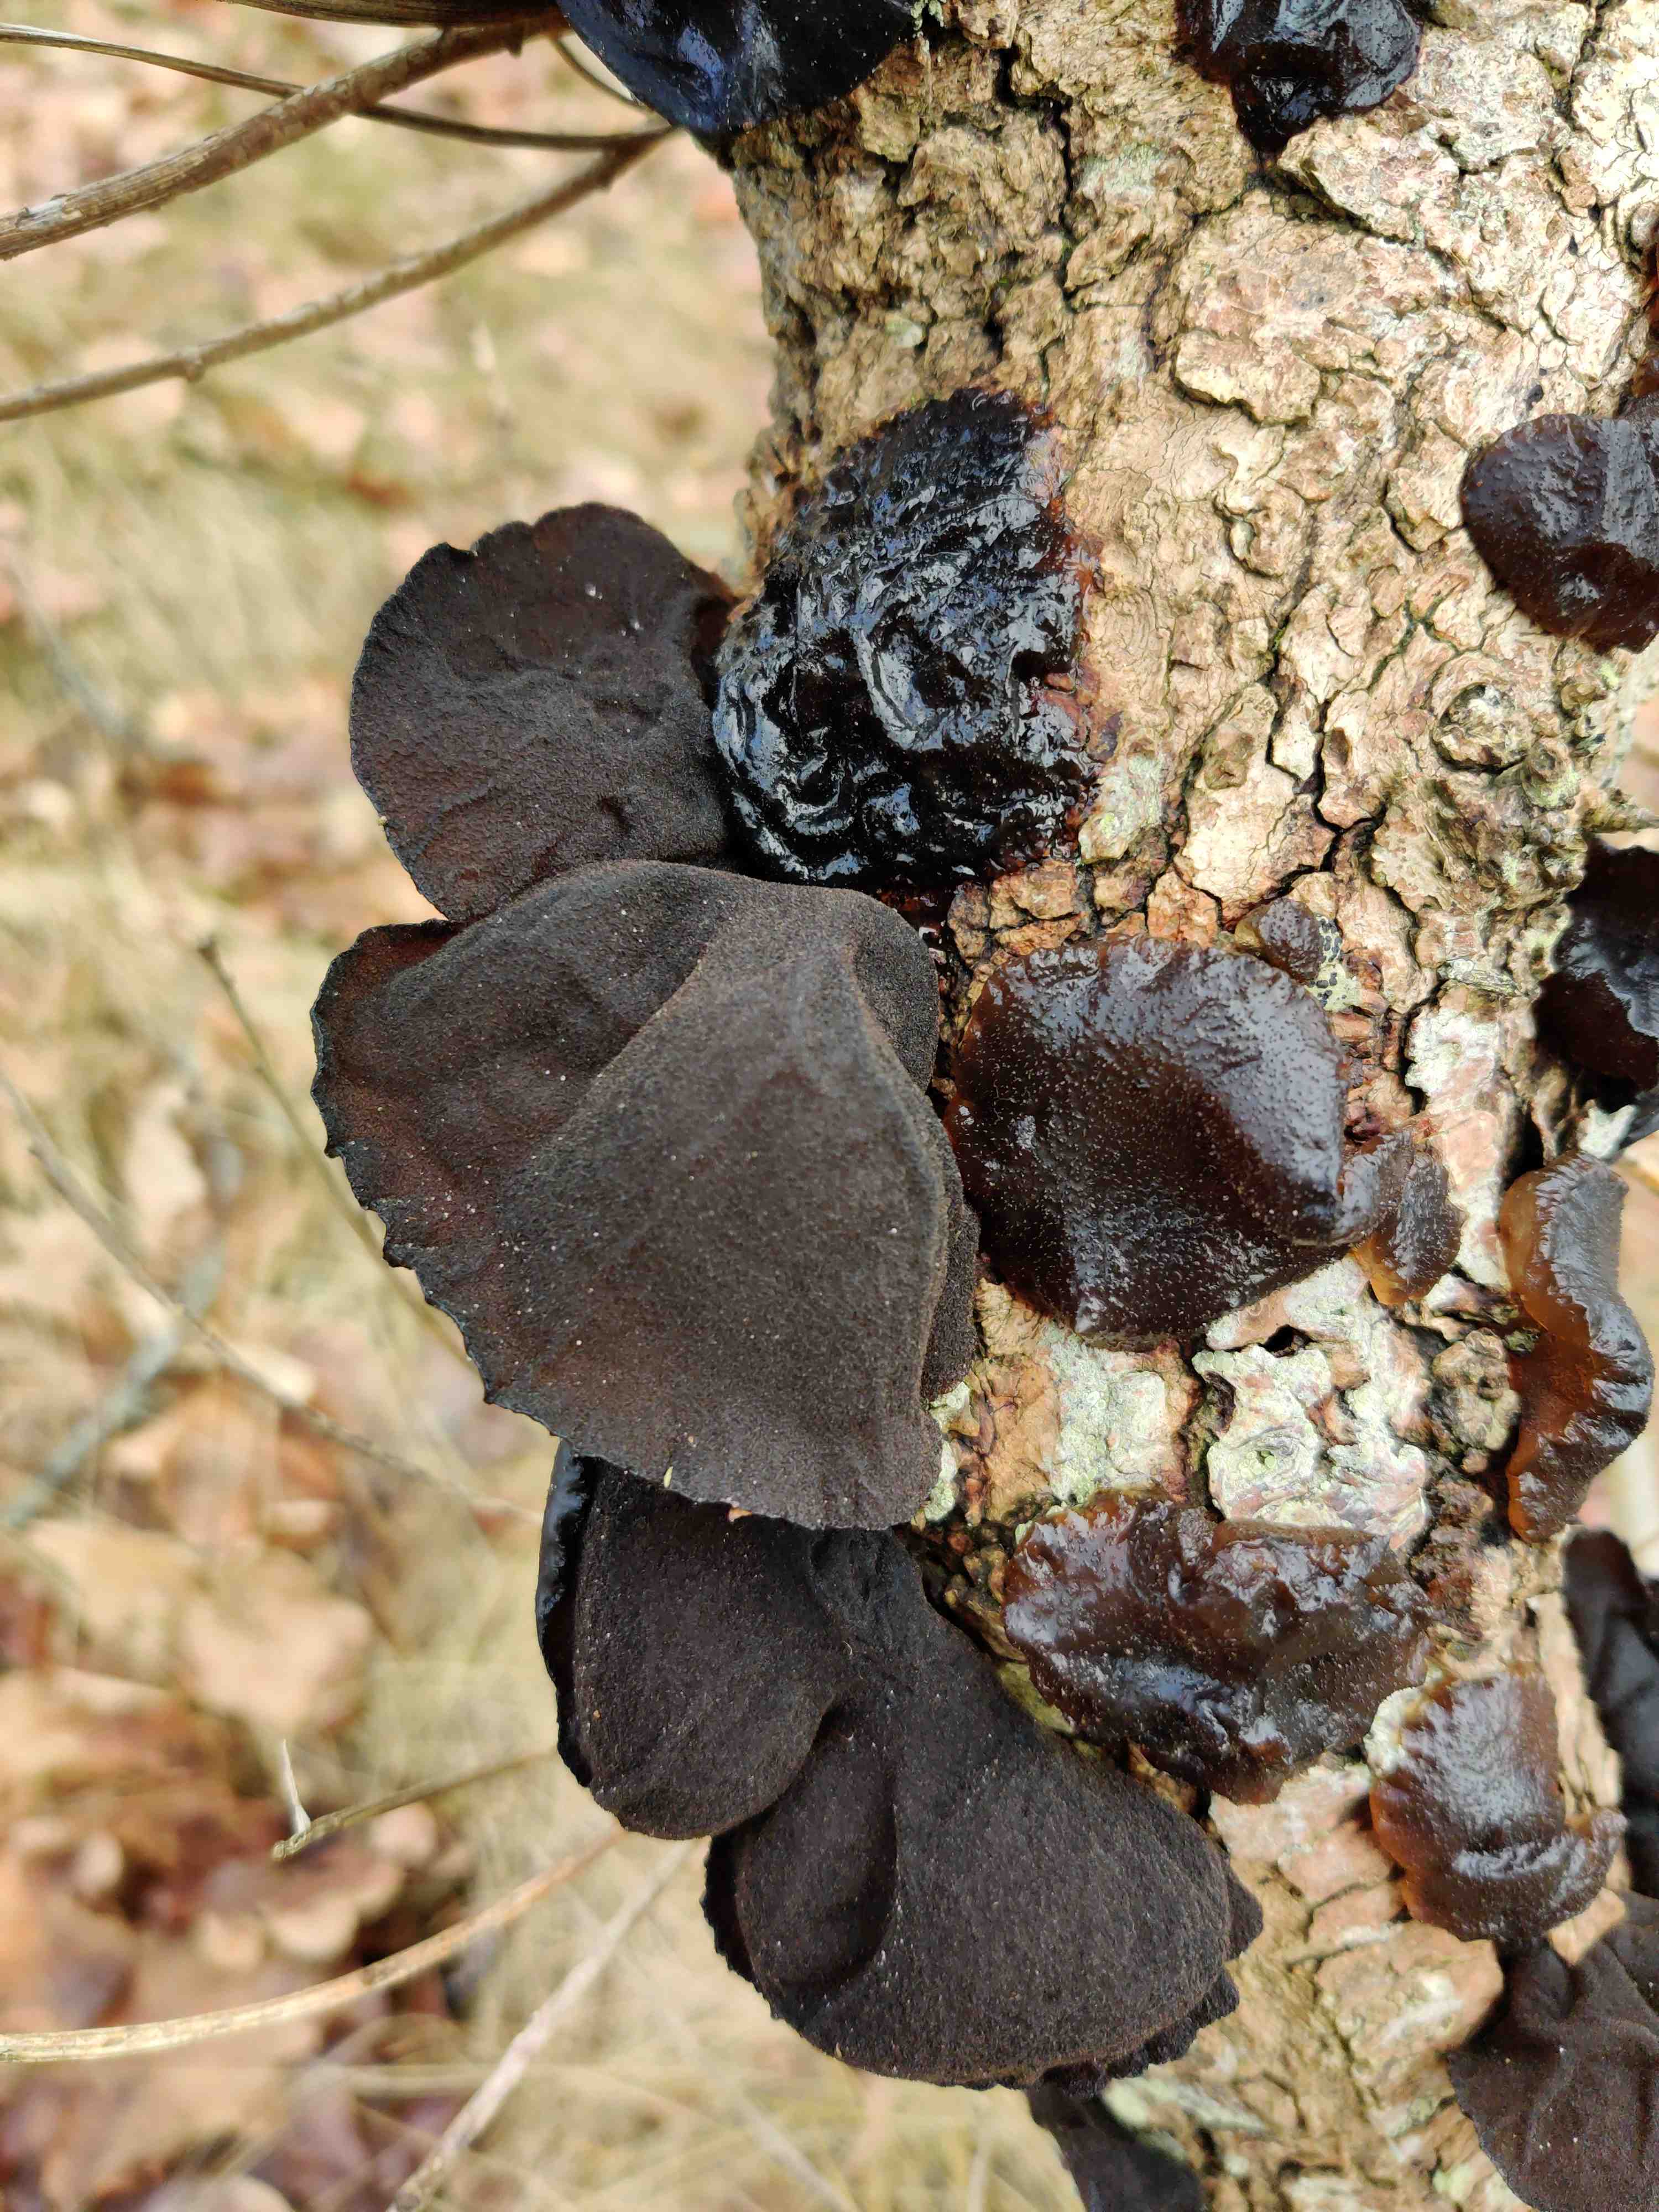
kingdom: Fungi
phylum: Basidiomycota
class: Agaricomycetes
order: Auriculariales
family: Auriculariaceae
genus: Exidia
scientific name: Exidia glandulosa
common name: ege-bævretop
